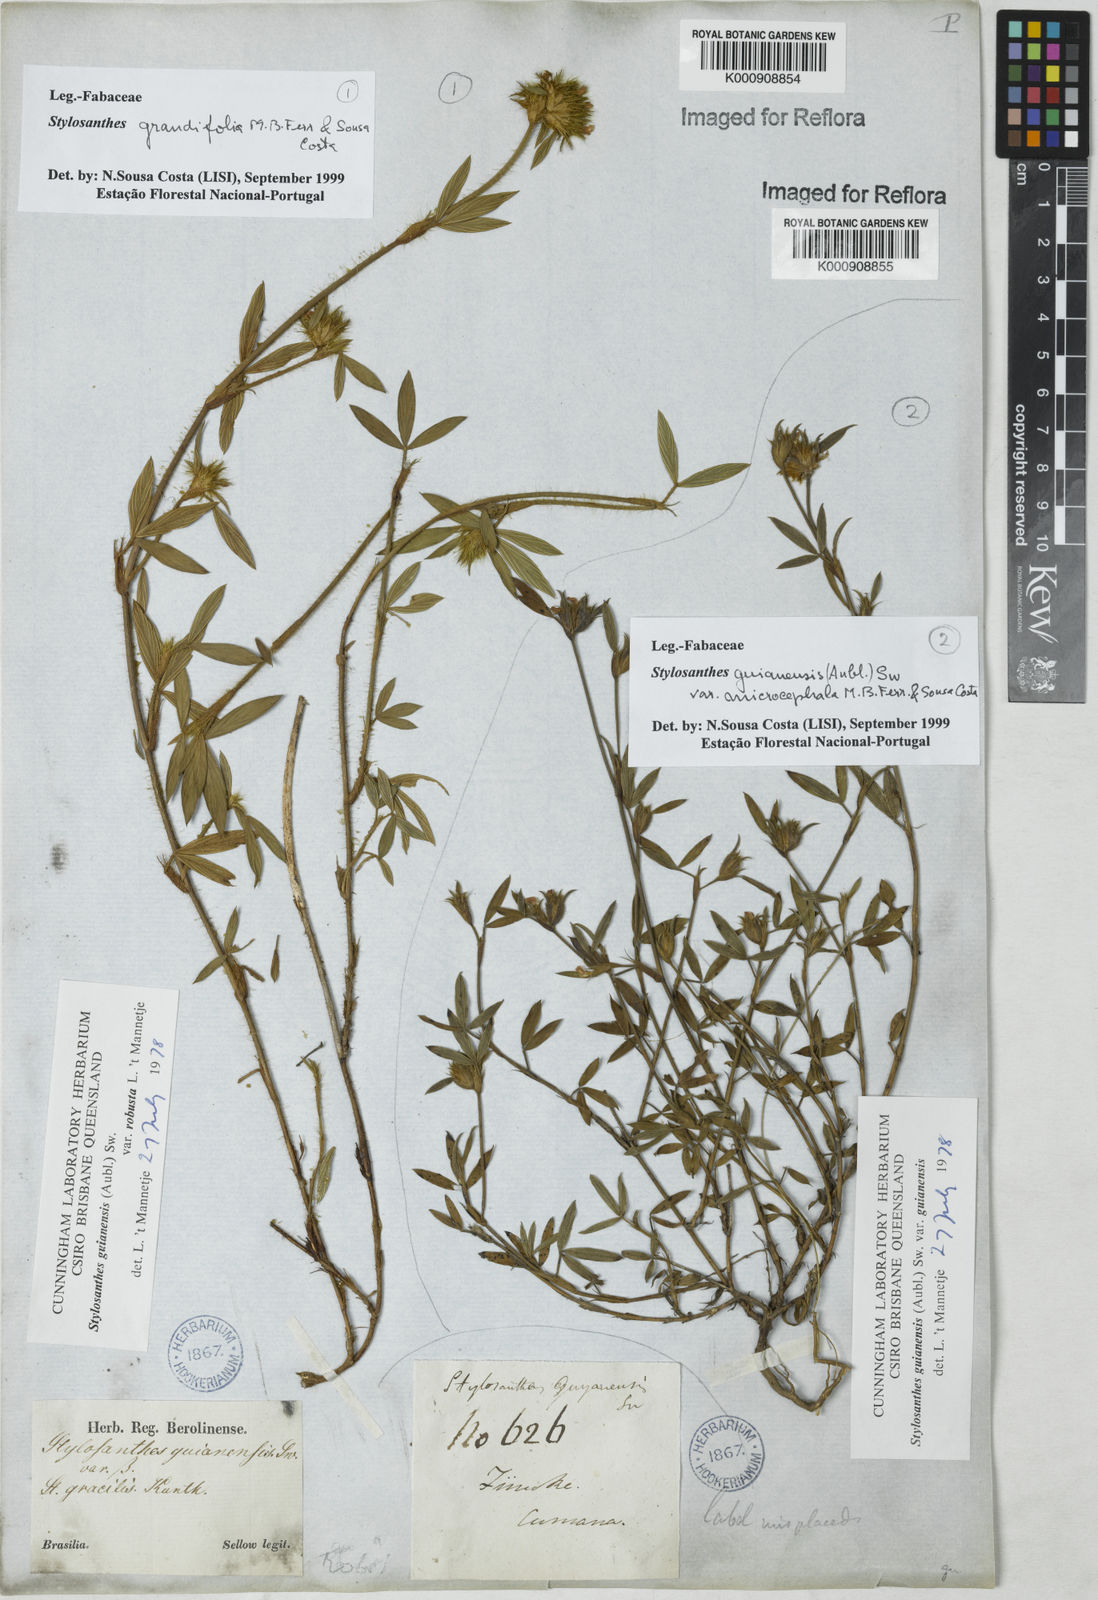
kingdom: Plantae
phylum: Tracheophyta
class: Magnoliopsida
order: Fabales
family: Fabaceae
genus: Stylosanthes
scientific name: Stylosanthes guianensis
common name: Pencil flower
